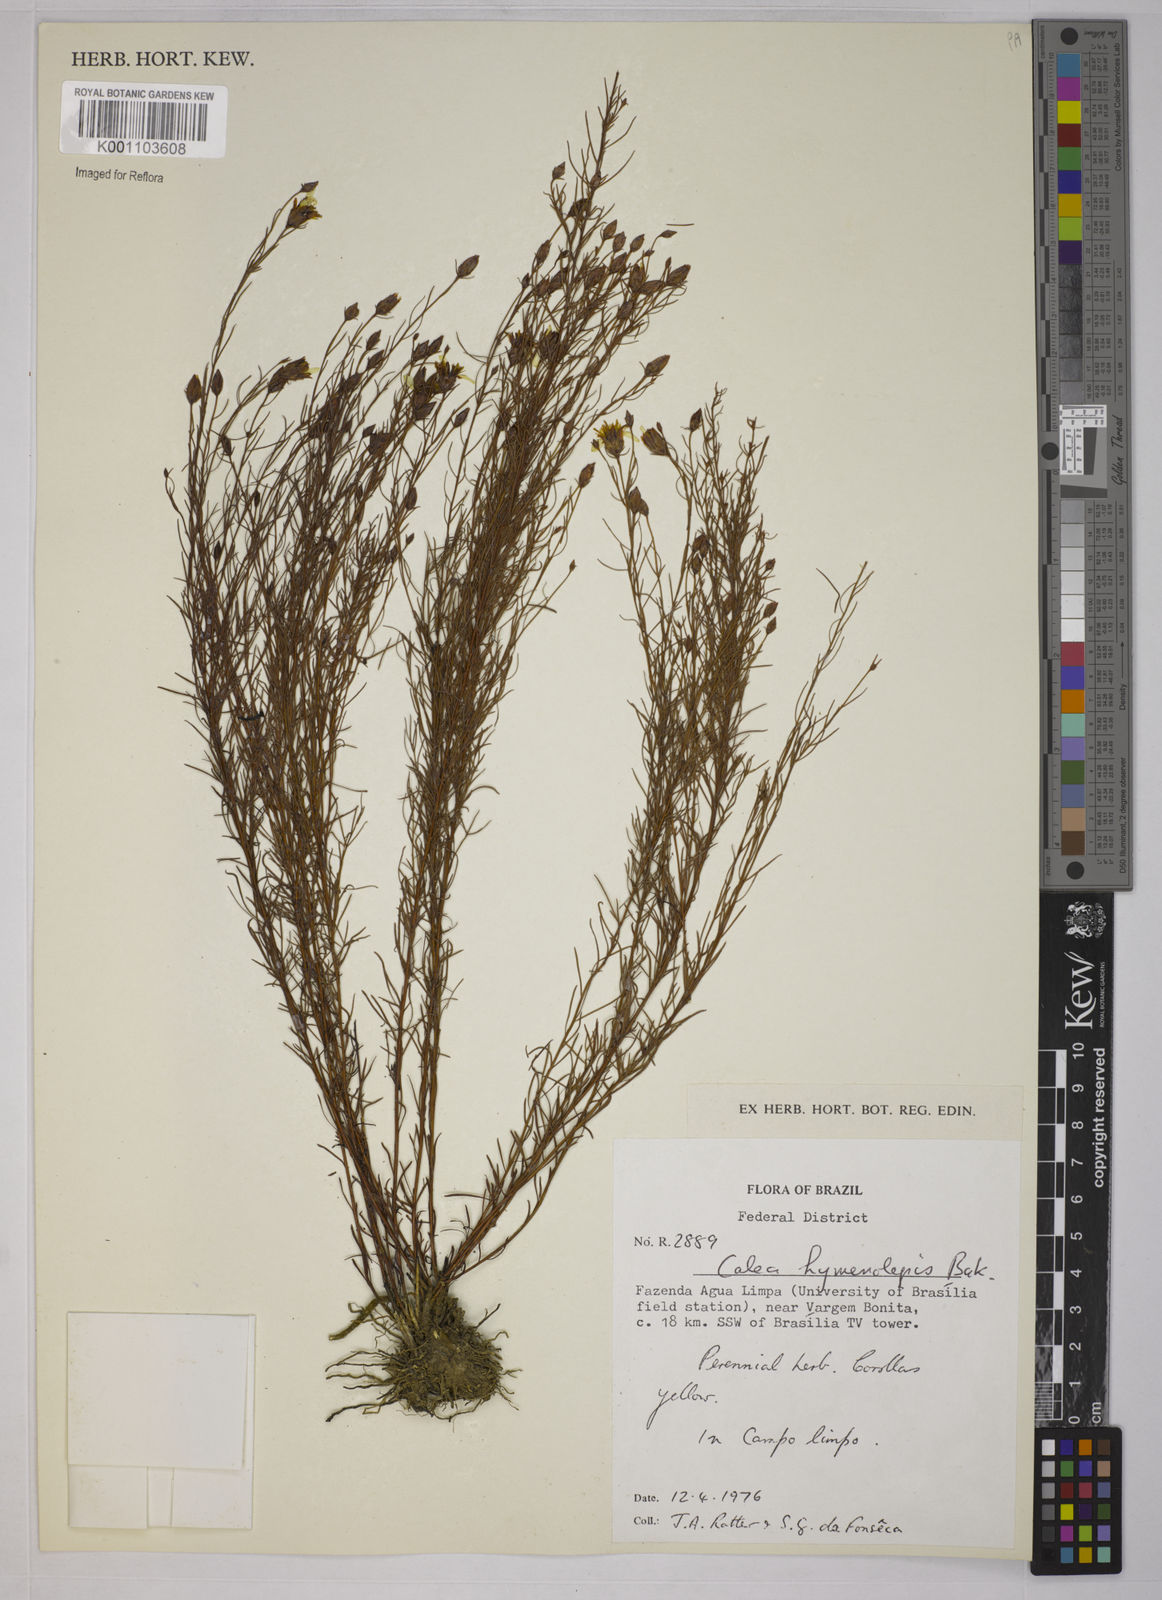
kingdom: Plantae
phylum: Tracheophyta
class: Magnoliopsida
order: Asterales
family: Asteraceae
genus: Calea
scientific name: Calea hymenolepis
